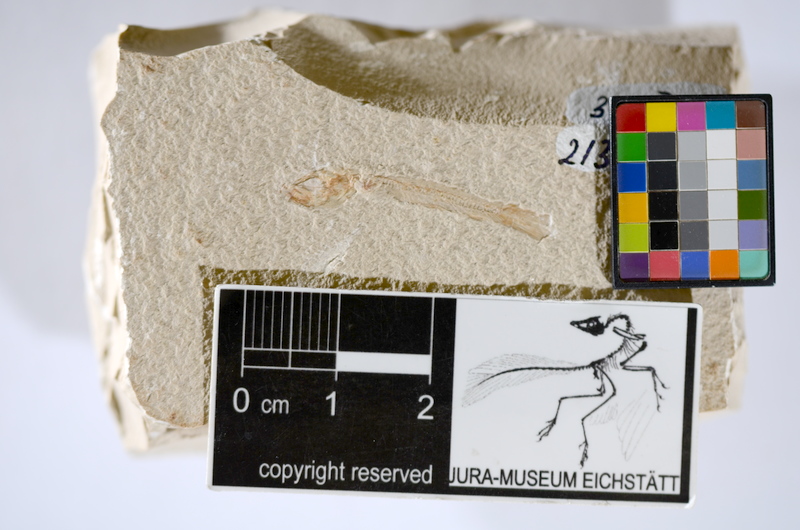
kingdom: Animalia
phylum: Chordata
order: Salmoniformes
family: Orthogonikleithridae
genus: Leptolepides
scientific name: Leptolepides sprattiformis
